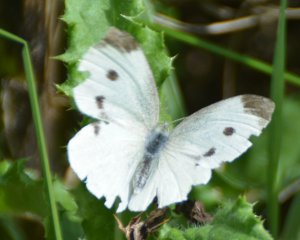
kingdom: Animalia
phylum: Arthropoda
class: Insecta
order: Lepidoptera
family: Pieridae
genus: Pieris
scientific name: Pieris rapae
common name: Cabbage White
